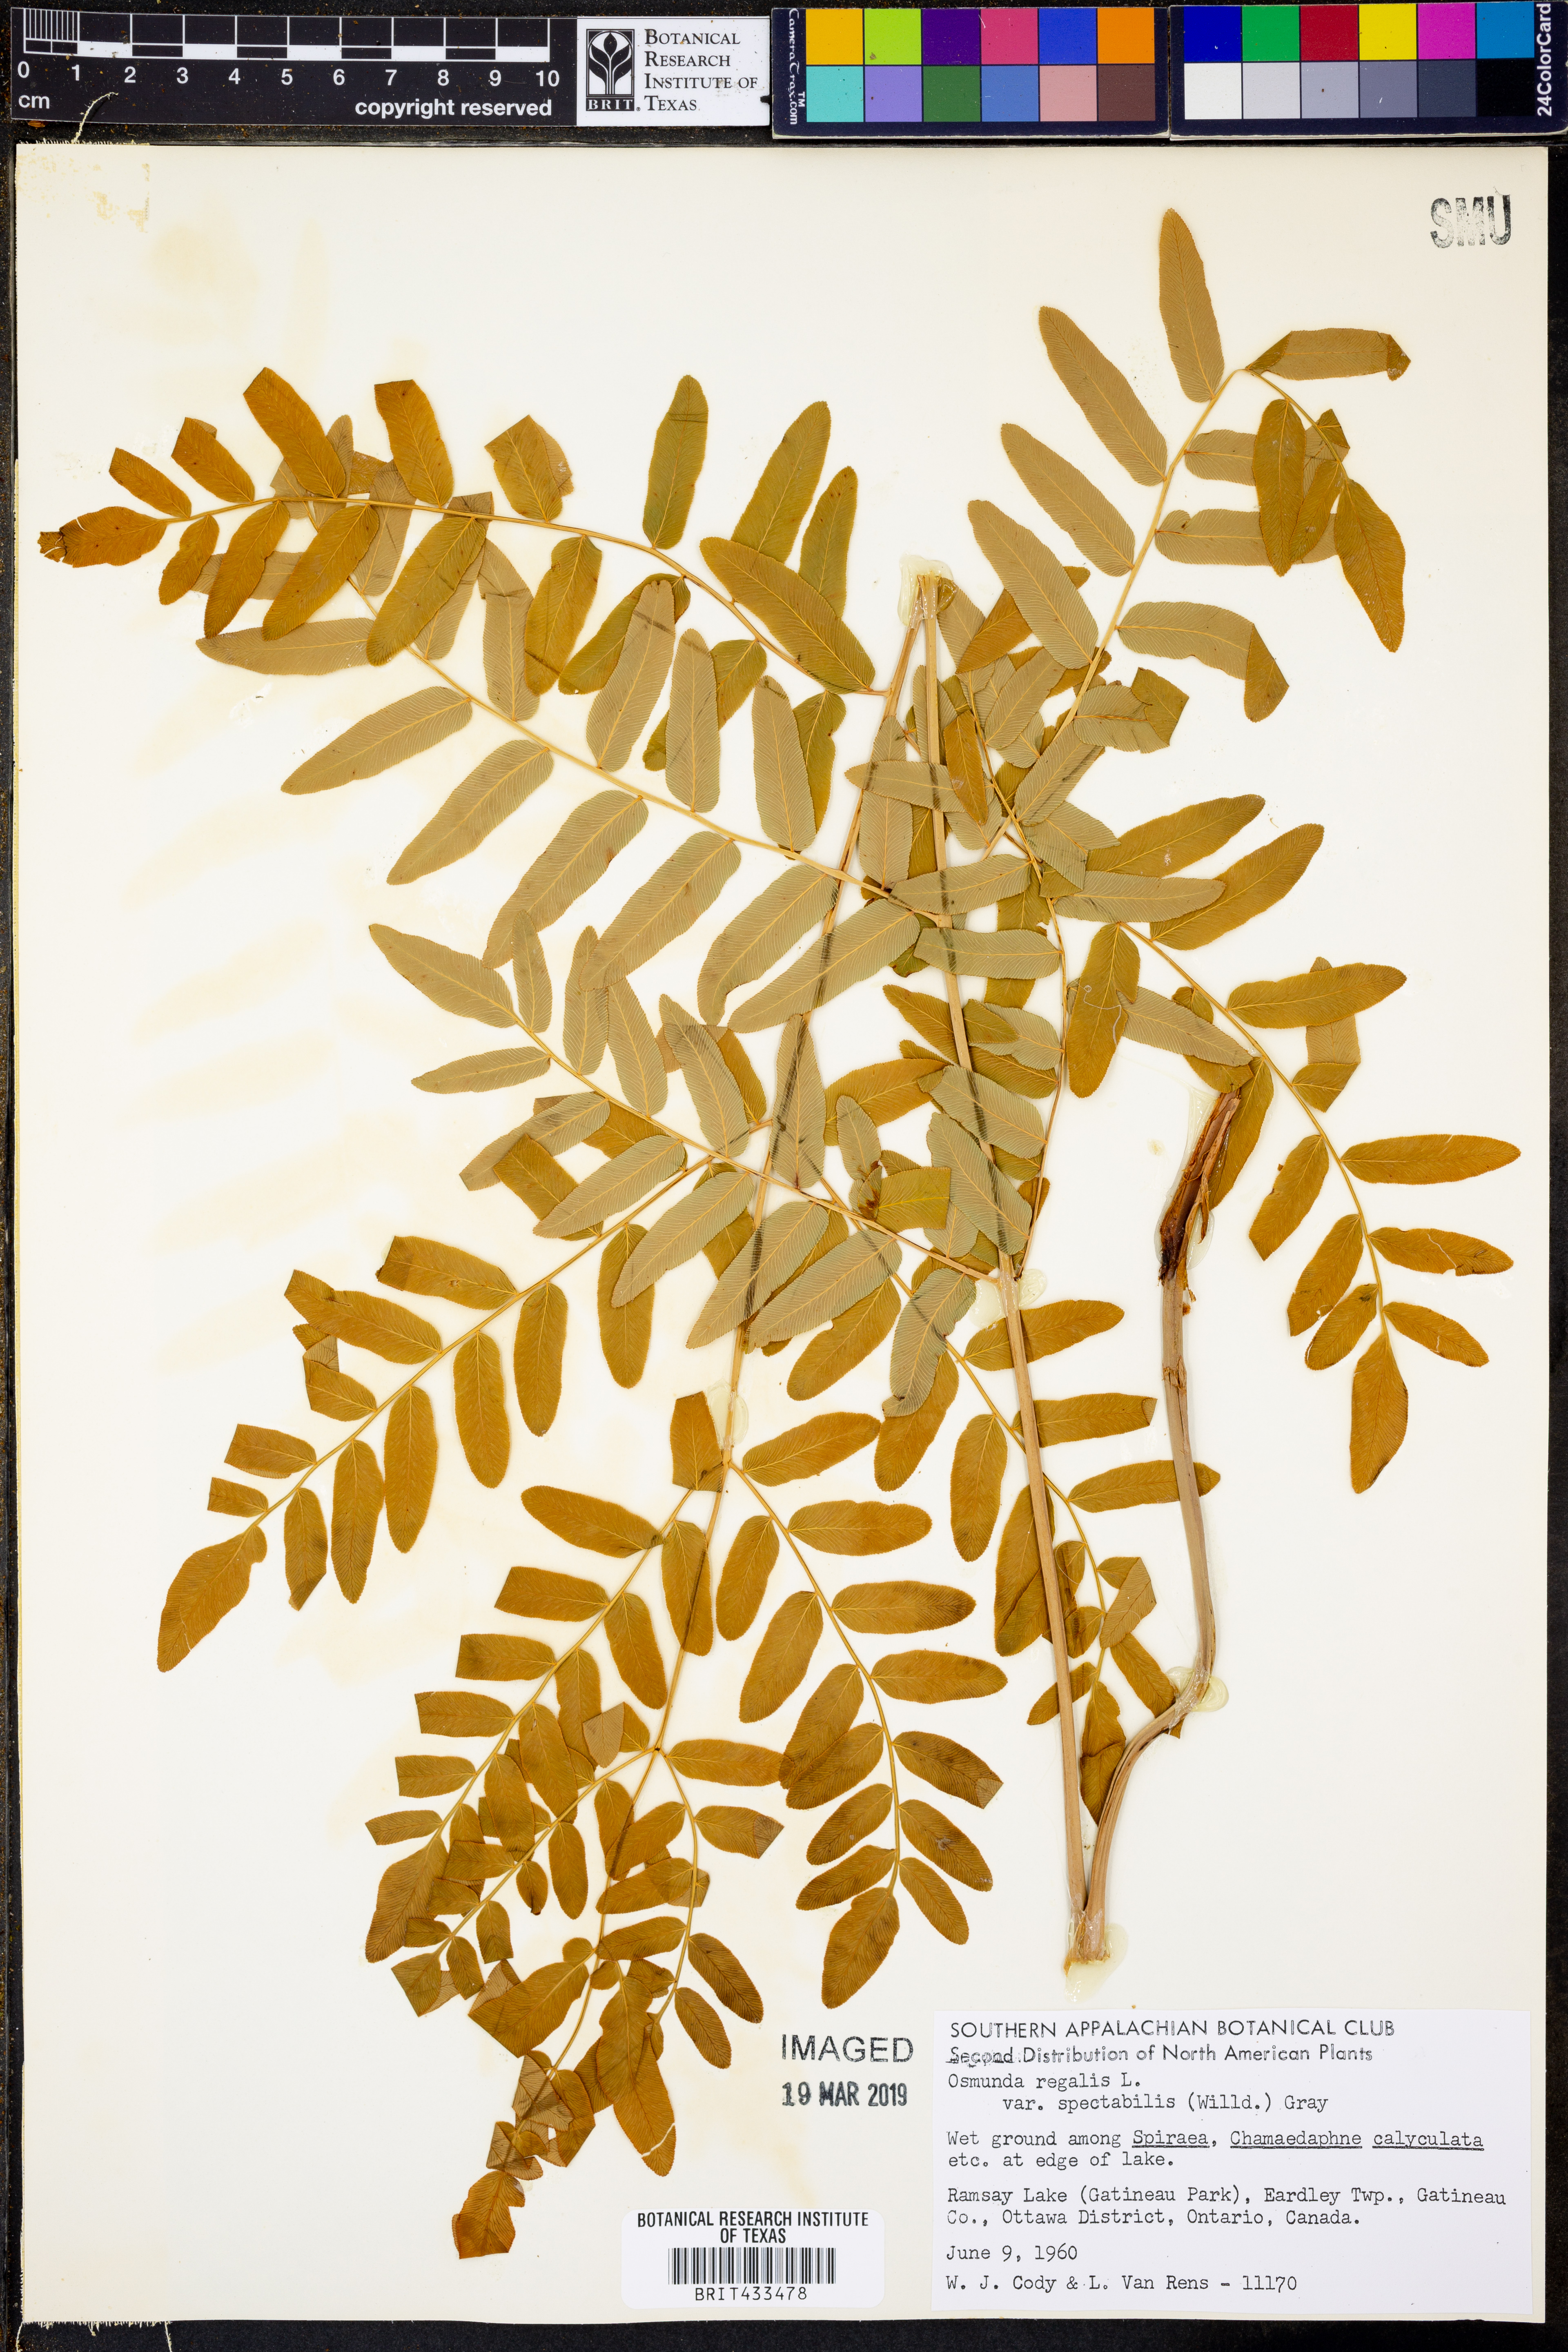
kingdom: Plantae
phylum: Tracheophyta
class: Polypodiopsida
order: Osmundales
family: Osmundaceae
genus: Osmunda
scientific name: Osmunda spectabilis
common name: American royal fern
